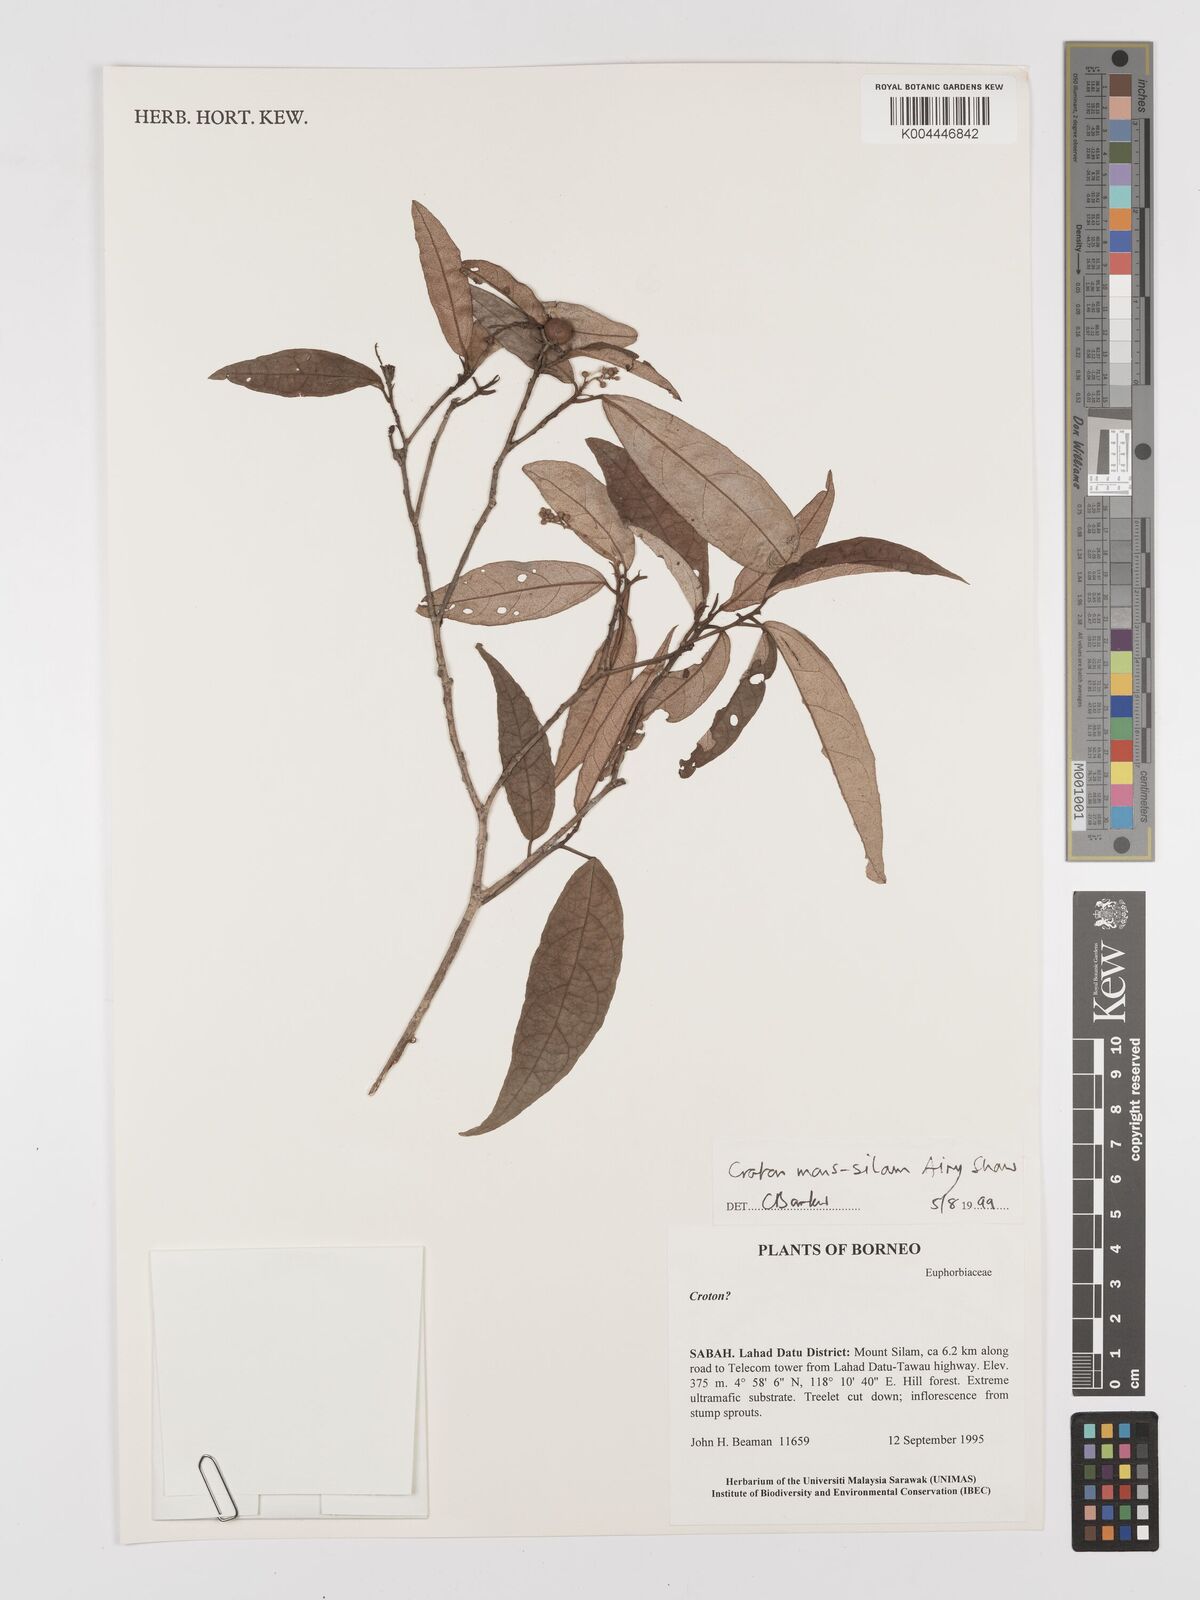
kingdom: Plantae
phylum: Tracheophyta
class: Magnoliopsida
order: Malpighiales
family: Euphorbiaceae
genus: Croton
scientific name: Croton montis-silam
